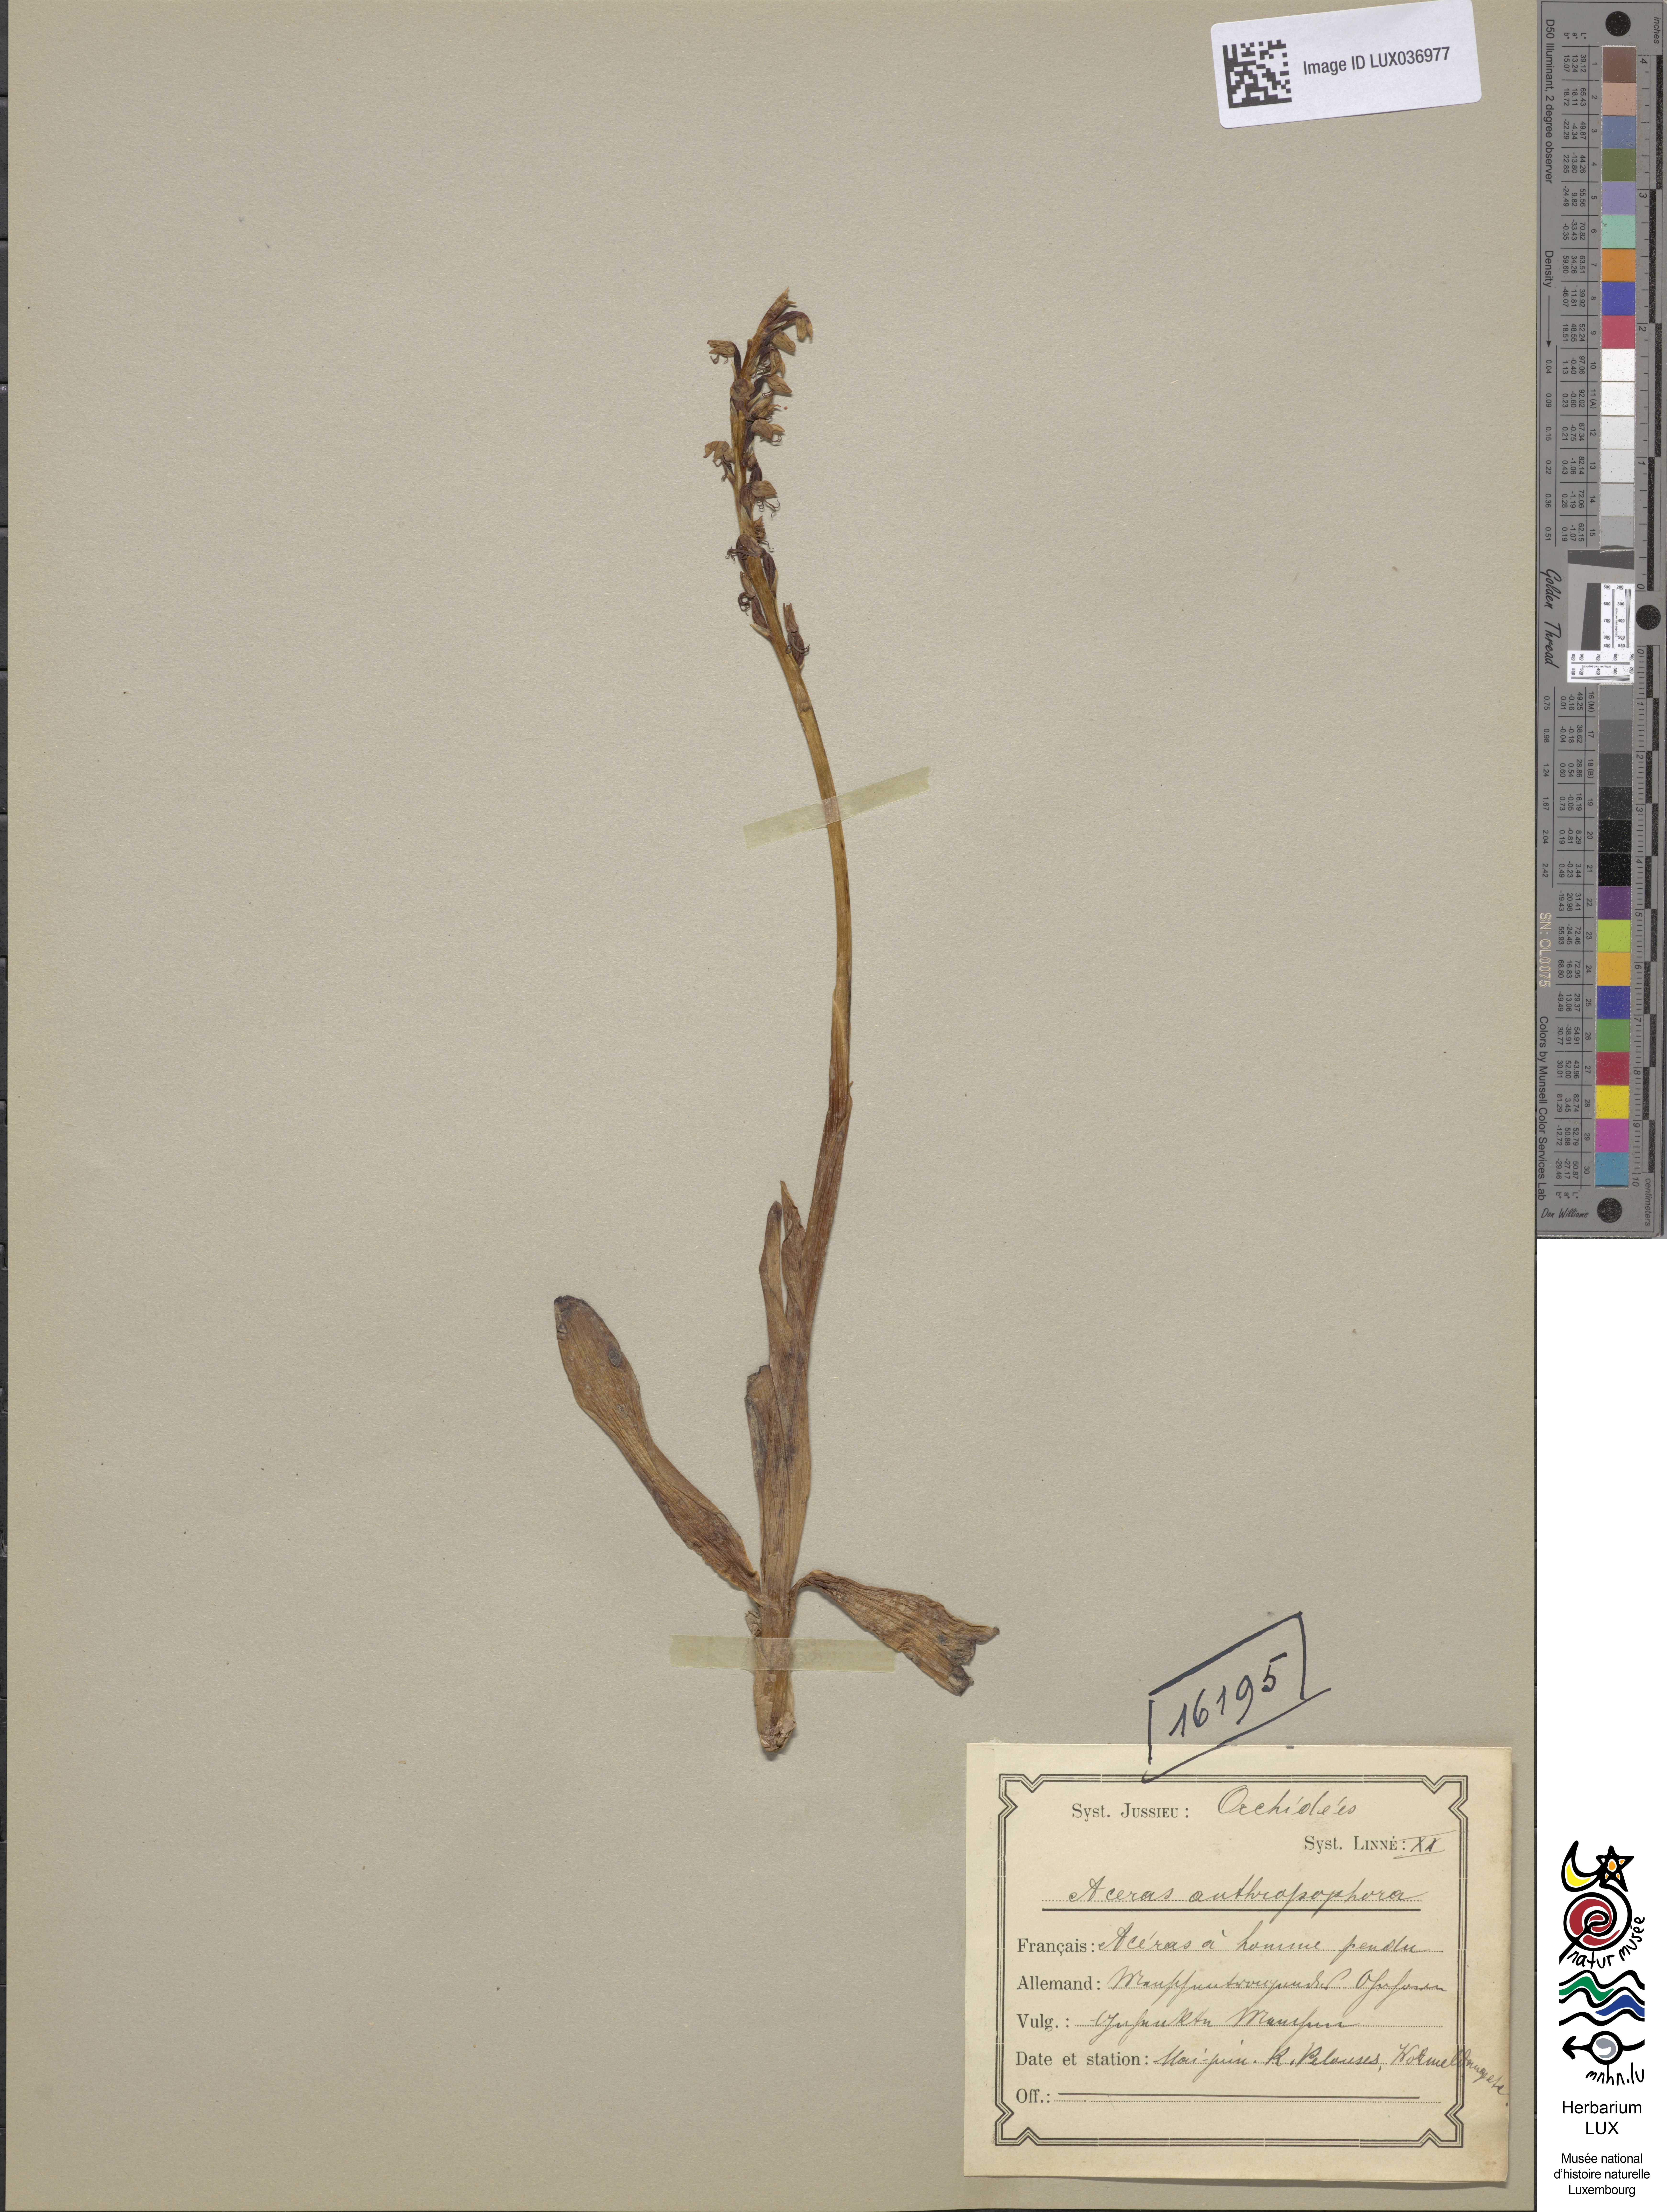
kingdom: Plantae
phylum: Tracheophyta
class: Liliopsida
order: Asparagales
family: Orchidaceae
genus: Orchis
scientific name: Orchis anthropophora
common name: Man orchid
